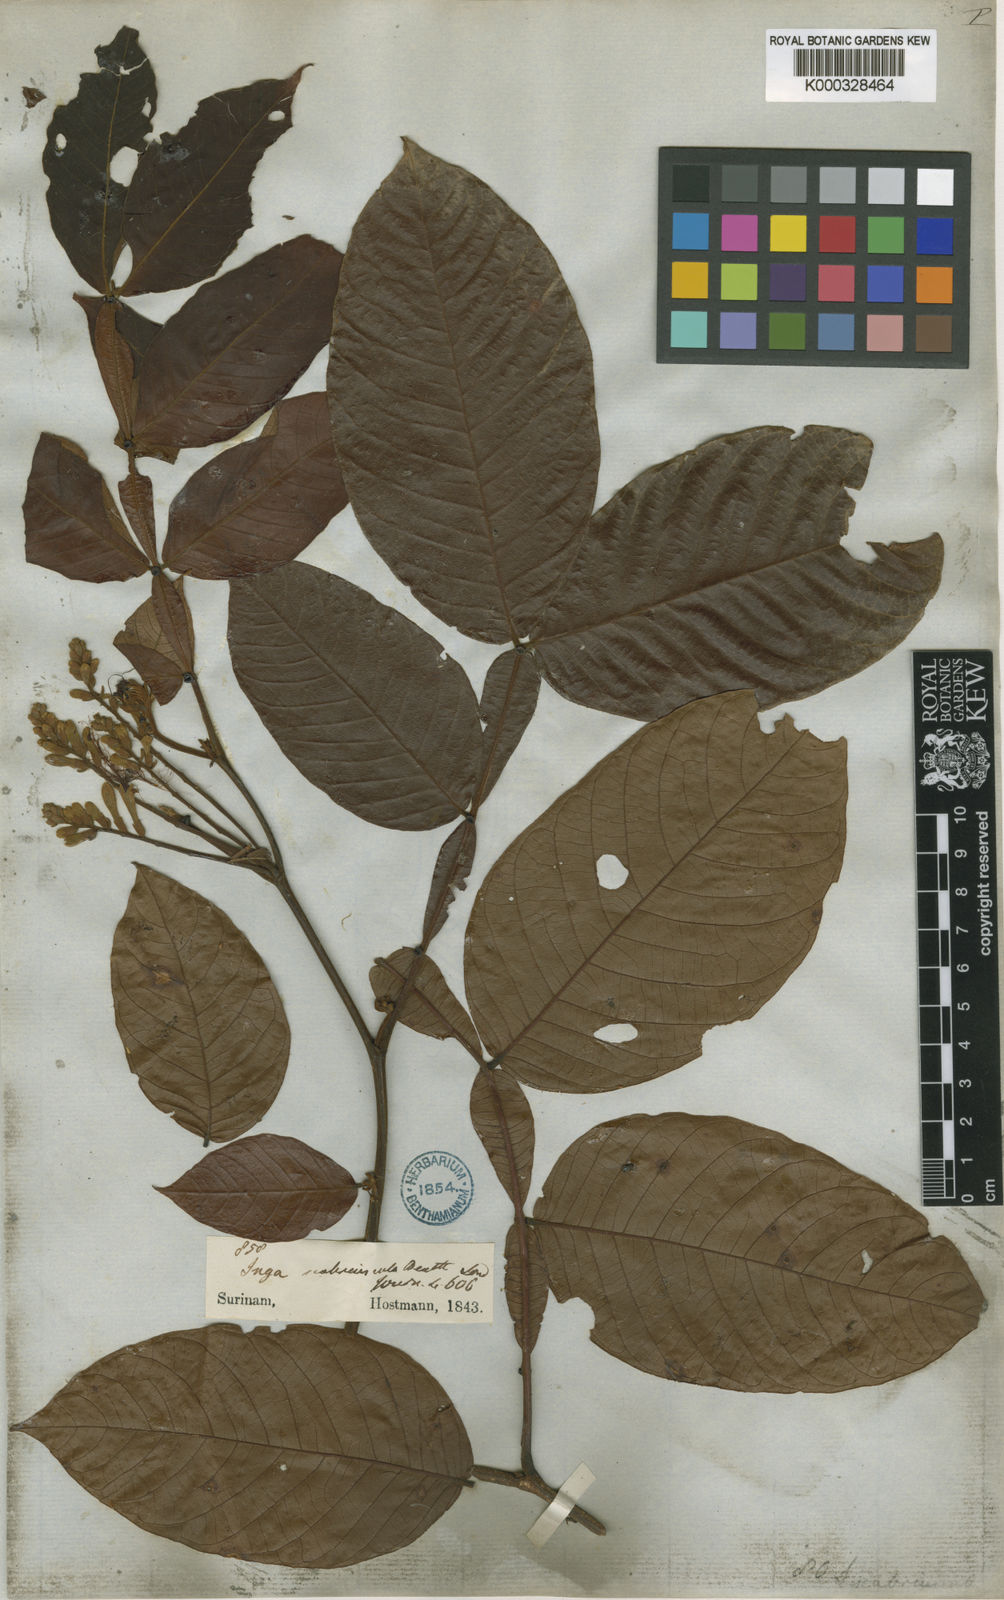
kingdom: Plantae
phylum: Tracheophyta
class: Magnoliopsida
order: Fabales
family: Fabaceae
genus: Inga
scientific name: Inga edulis
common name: Ice cream bean
